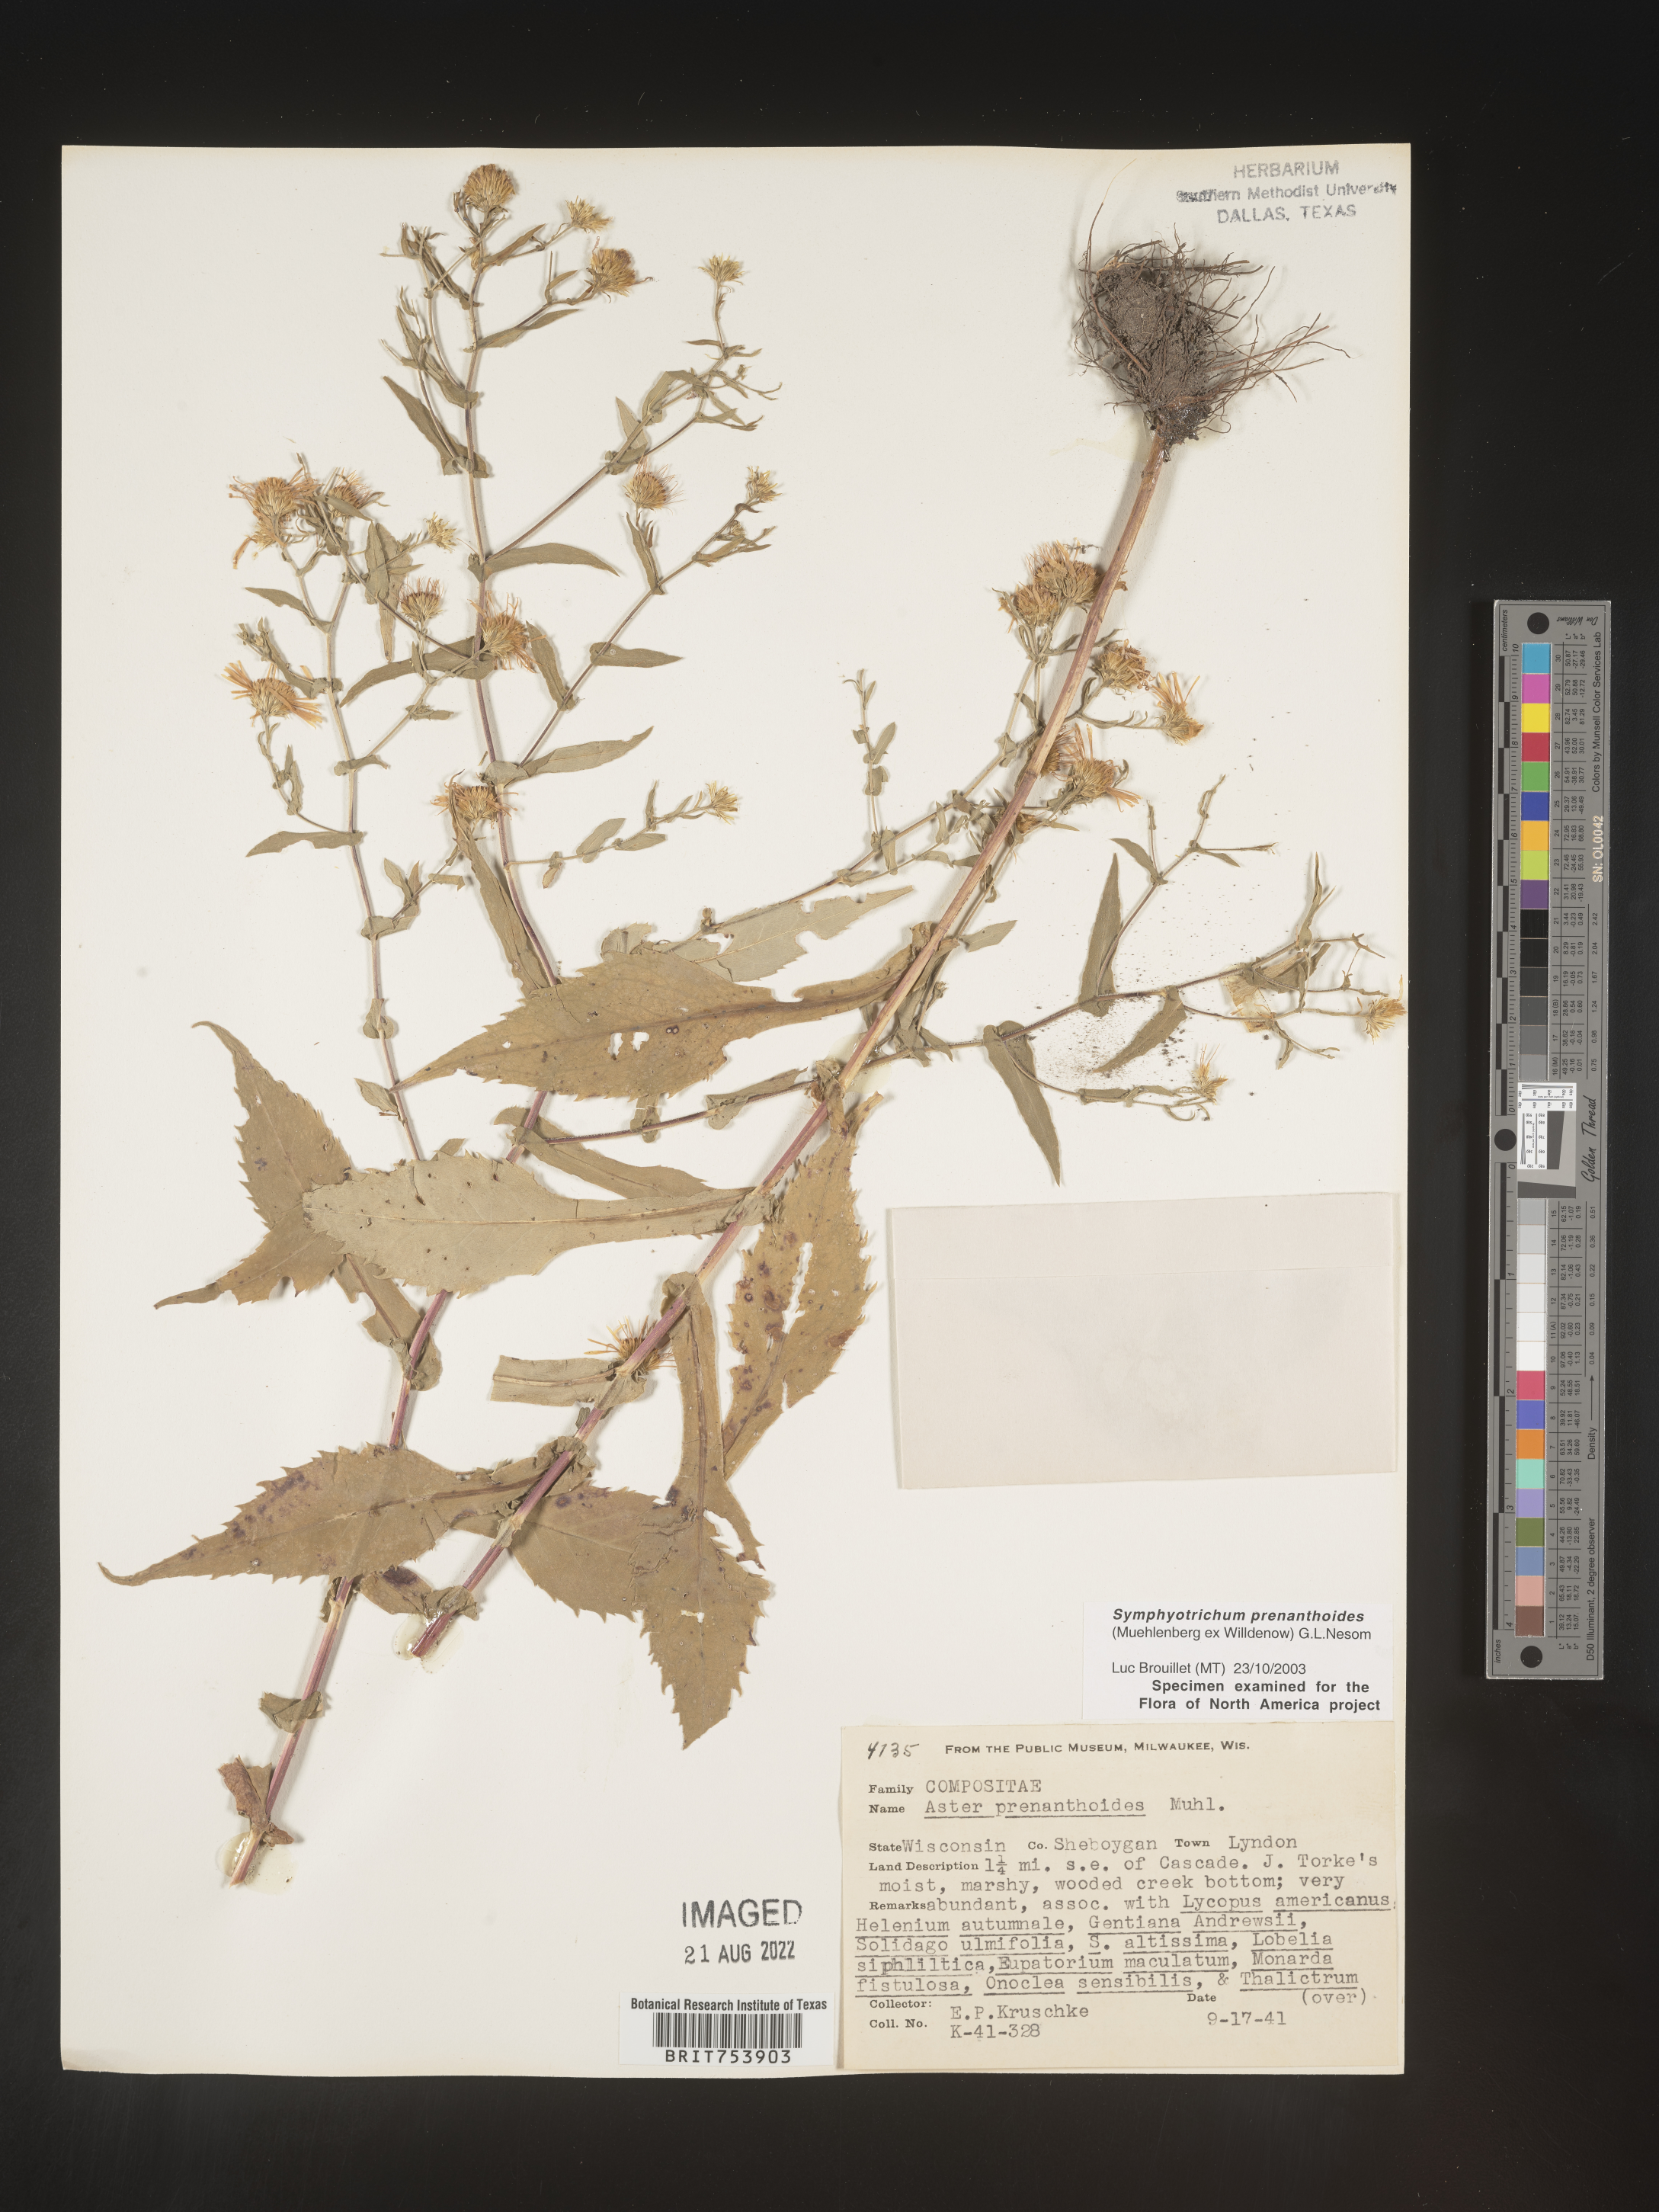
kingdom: Plantae
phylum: Tracheophyta
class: Magnoliopsida
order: Asterales
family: Asteraceae
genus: Symphyotrichum
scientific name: Symphyotrichum prenanthoides
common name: Crooked-stem aster
